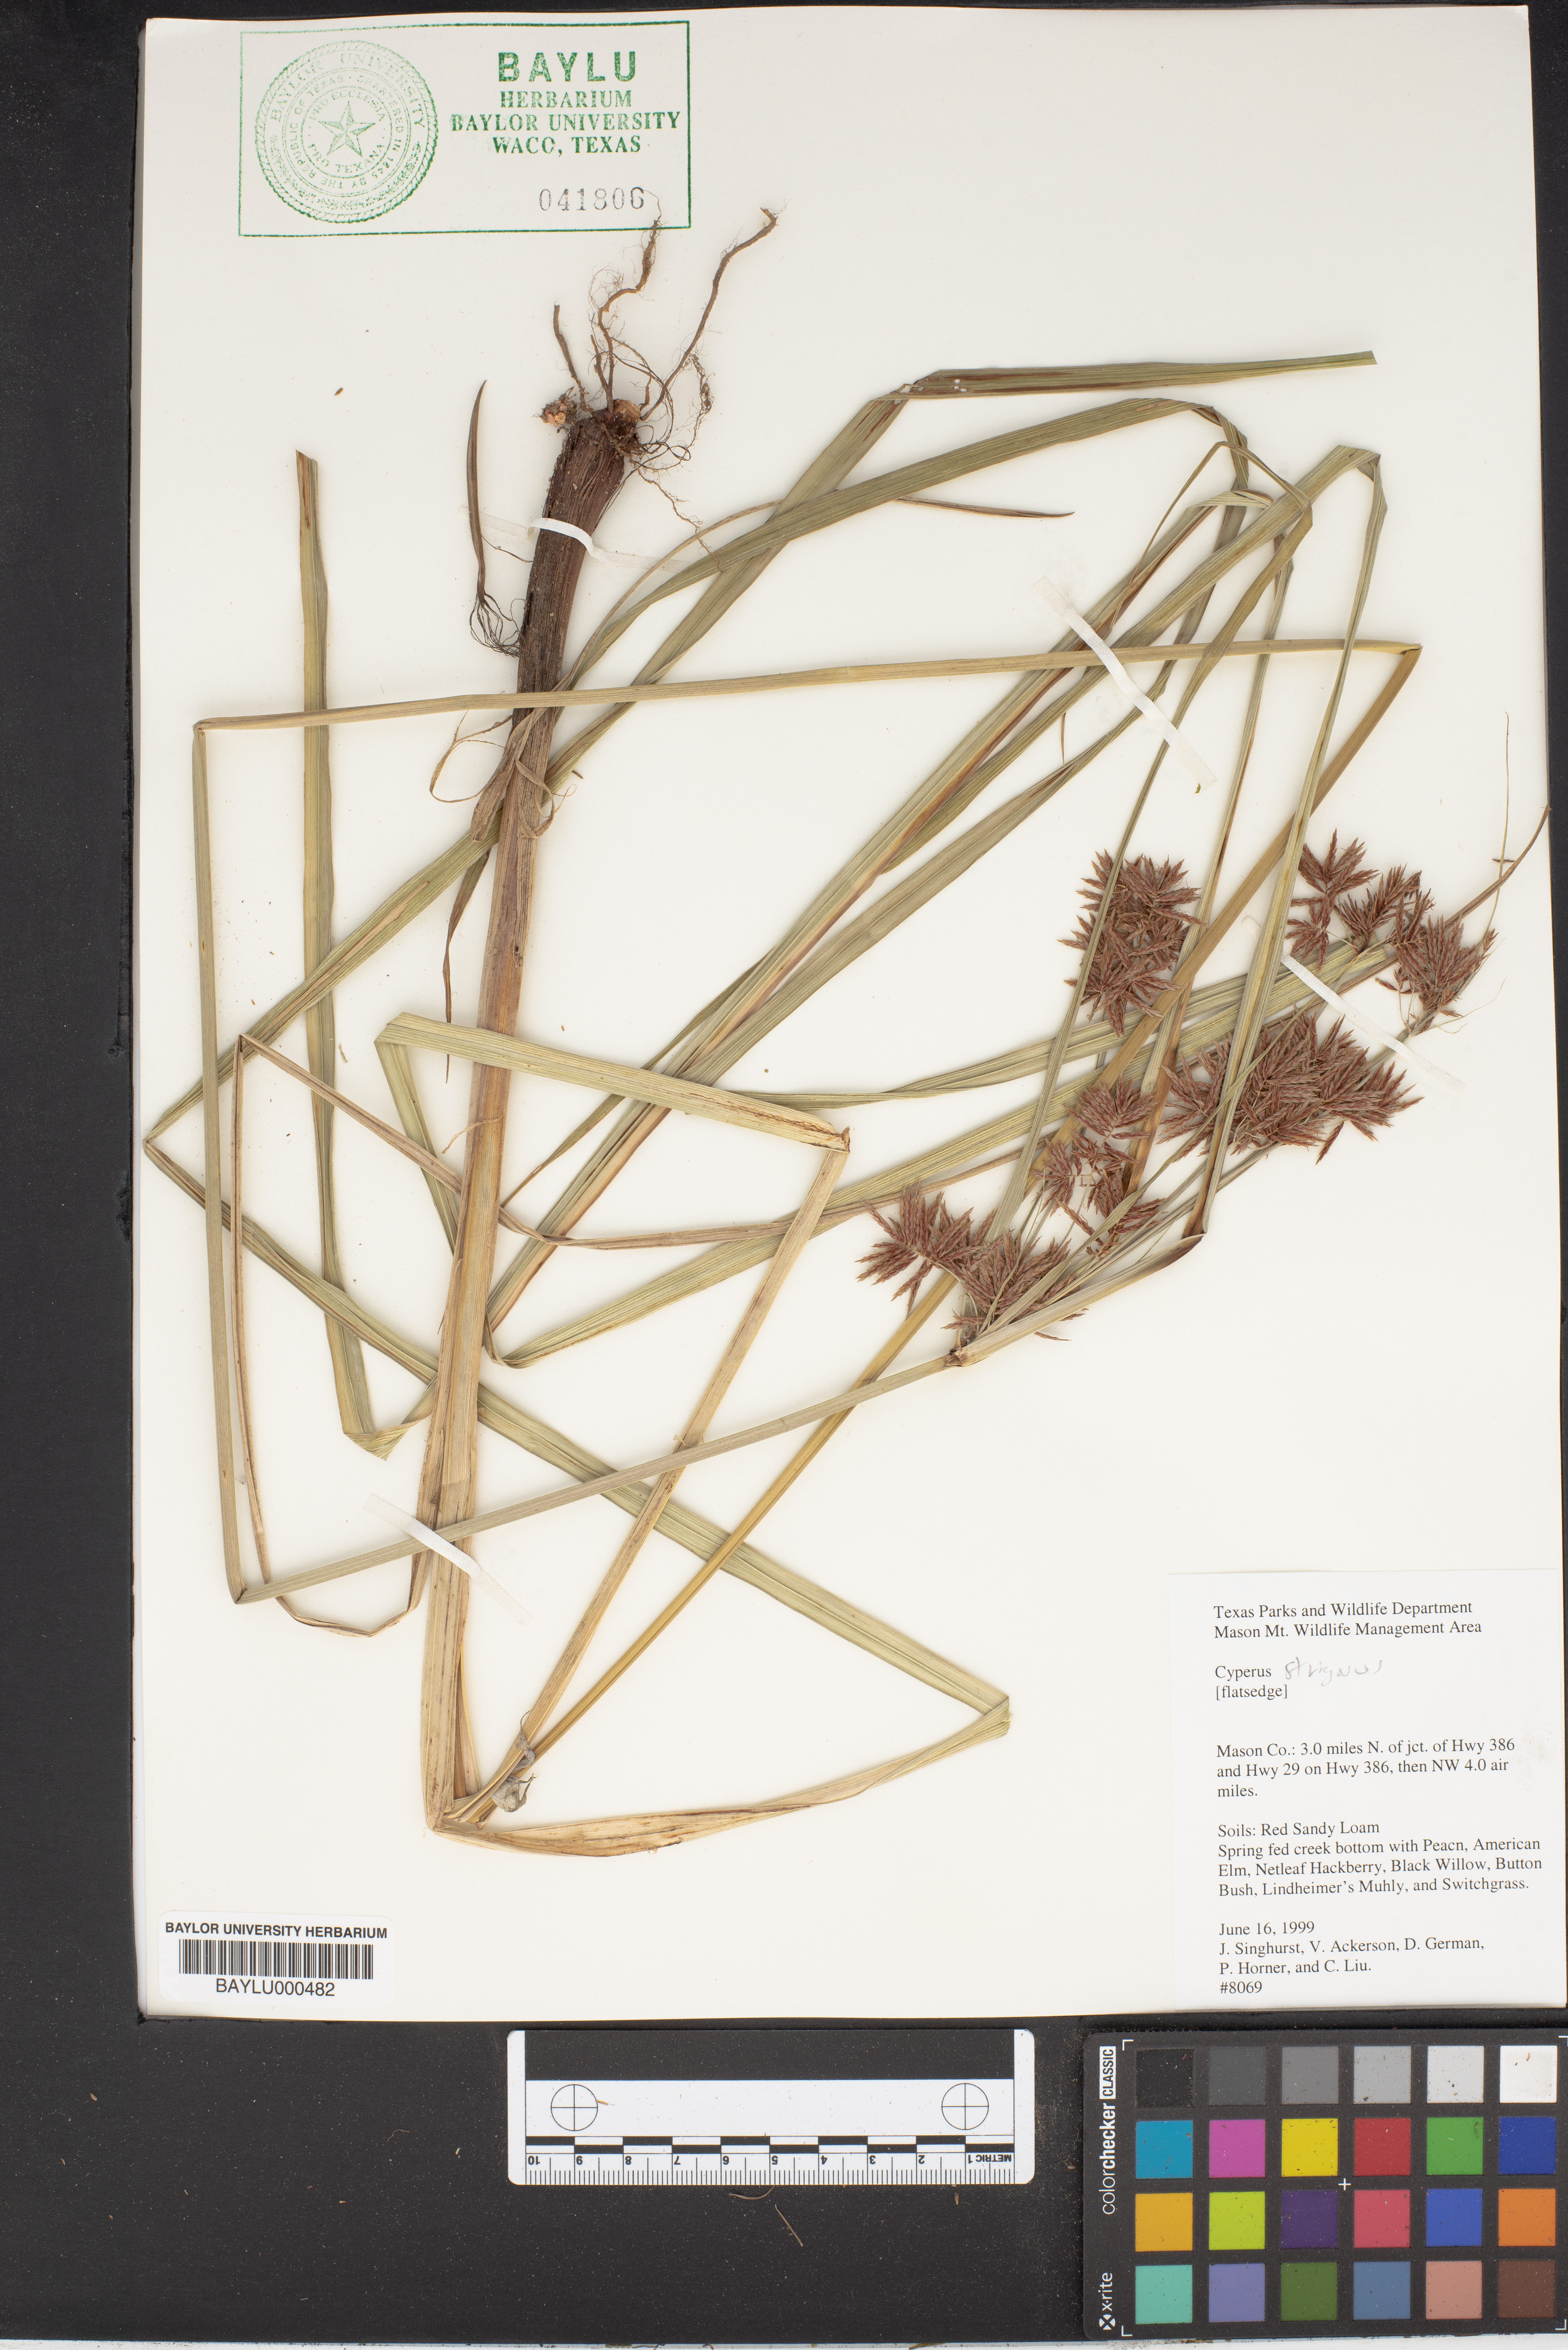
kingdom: Plantae
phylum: Tracheophyta
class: Liliopsida
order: Poales
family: Cyperaceae
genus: Cyperus
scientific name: Cyperus strigosus
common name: False nutsedge
